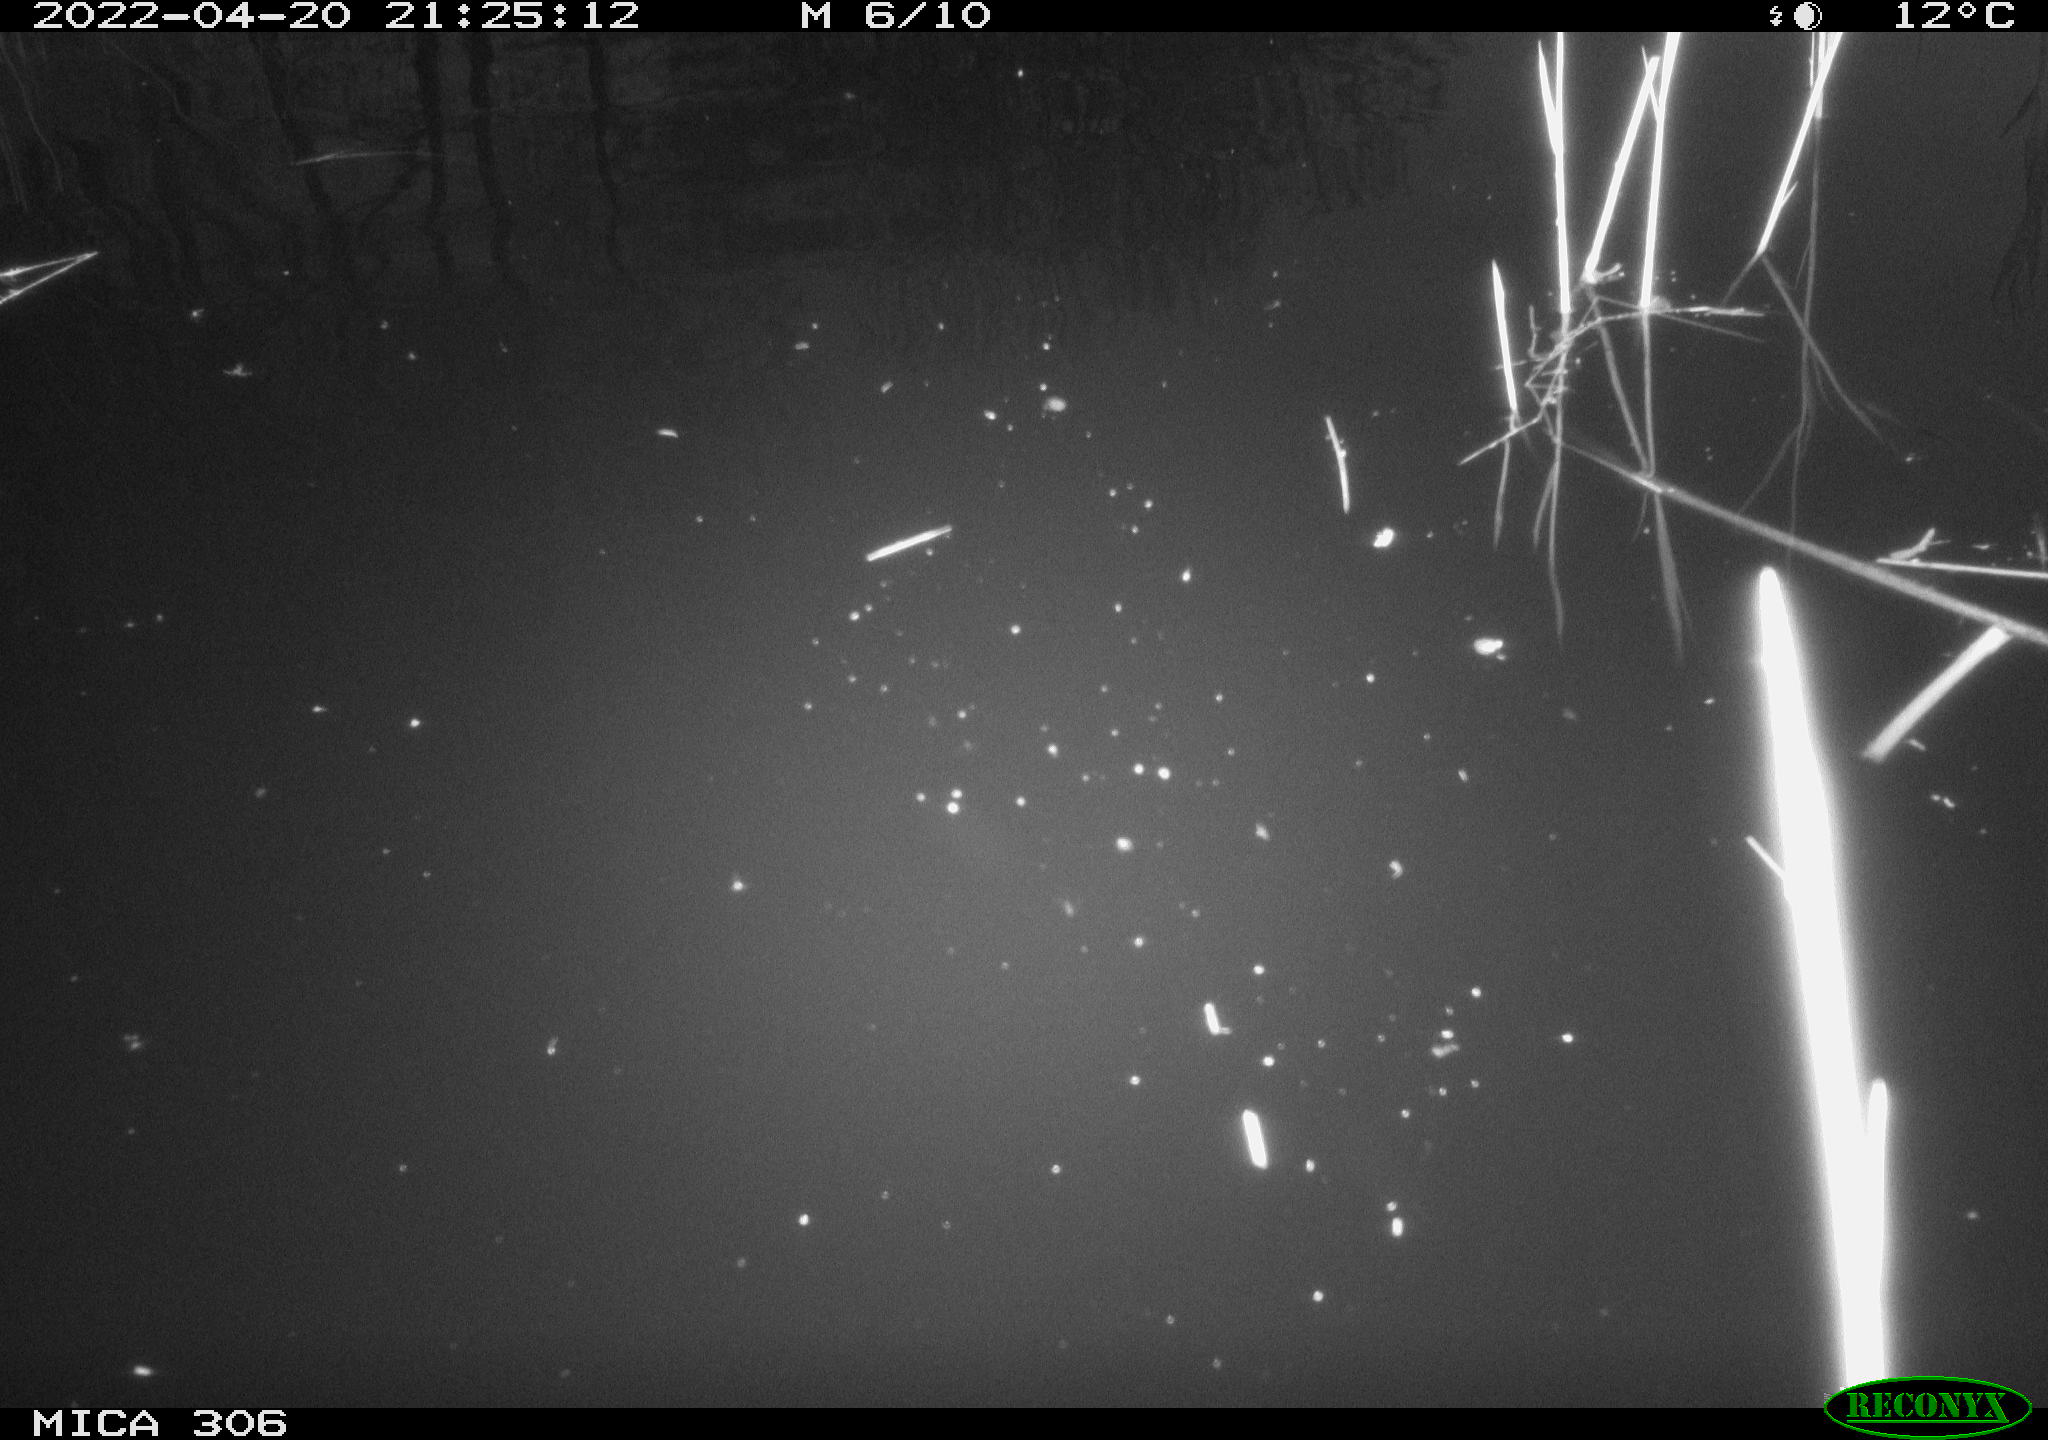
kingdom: Animalia
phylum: Chordata
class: Aves
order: Gruiformes
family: Rallidae
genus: Gallinula
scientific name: Gallinula chloropus
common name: Common moorhen
